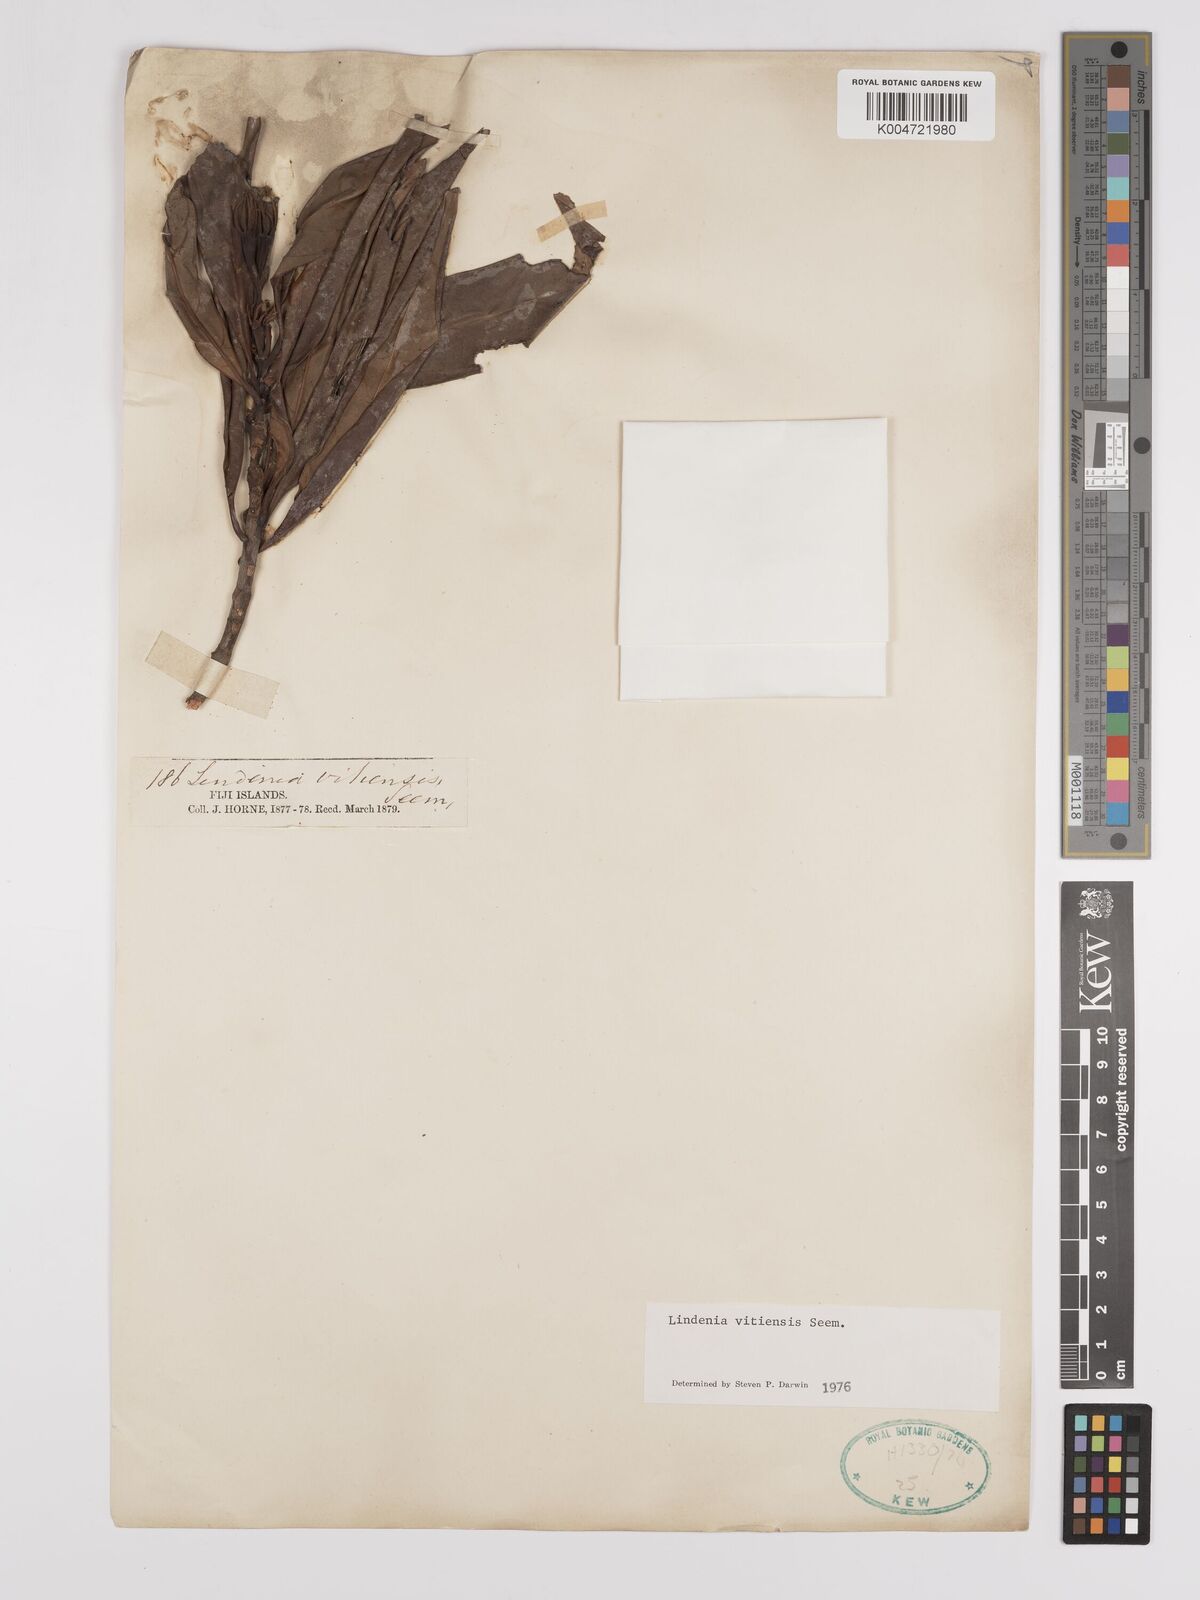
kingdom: Plantae
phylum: Tracheophyta
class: Magnoliopsida
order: Gentianales
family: Rubiaceae
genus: Augusta
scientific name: Augusta vitiensis
